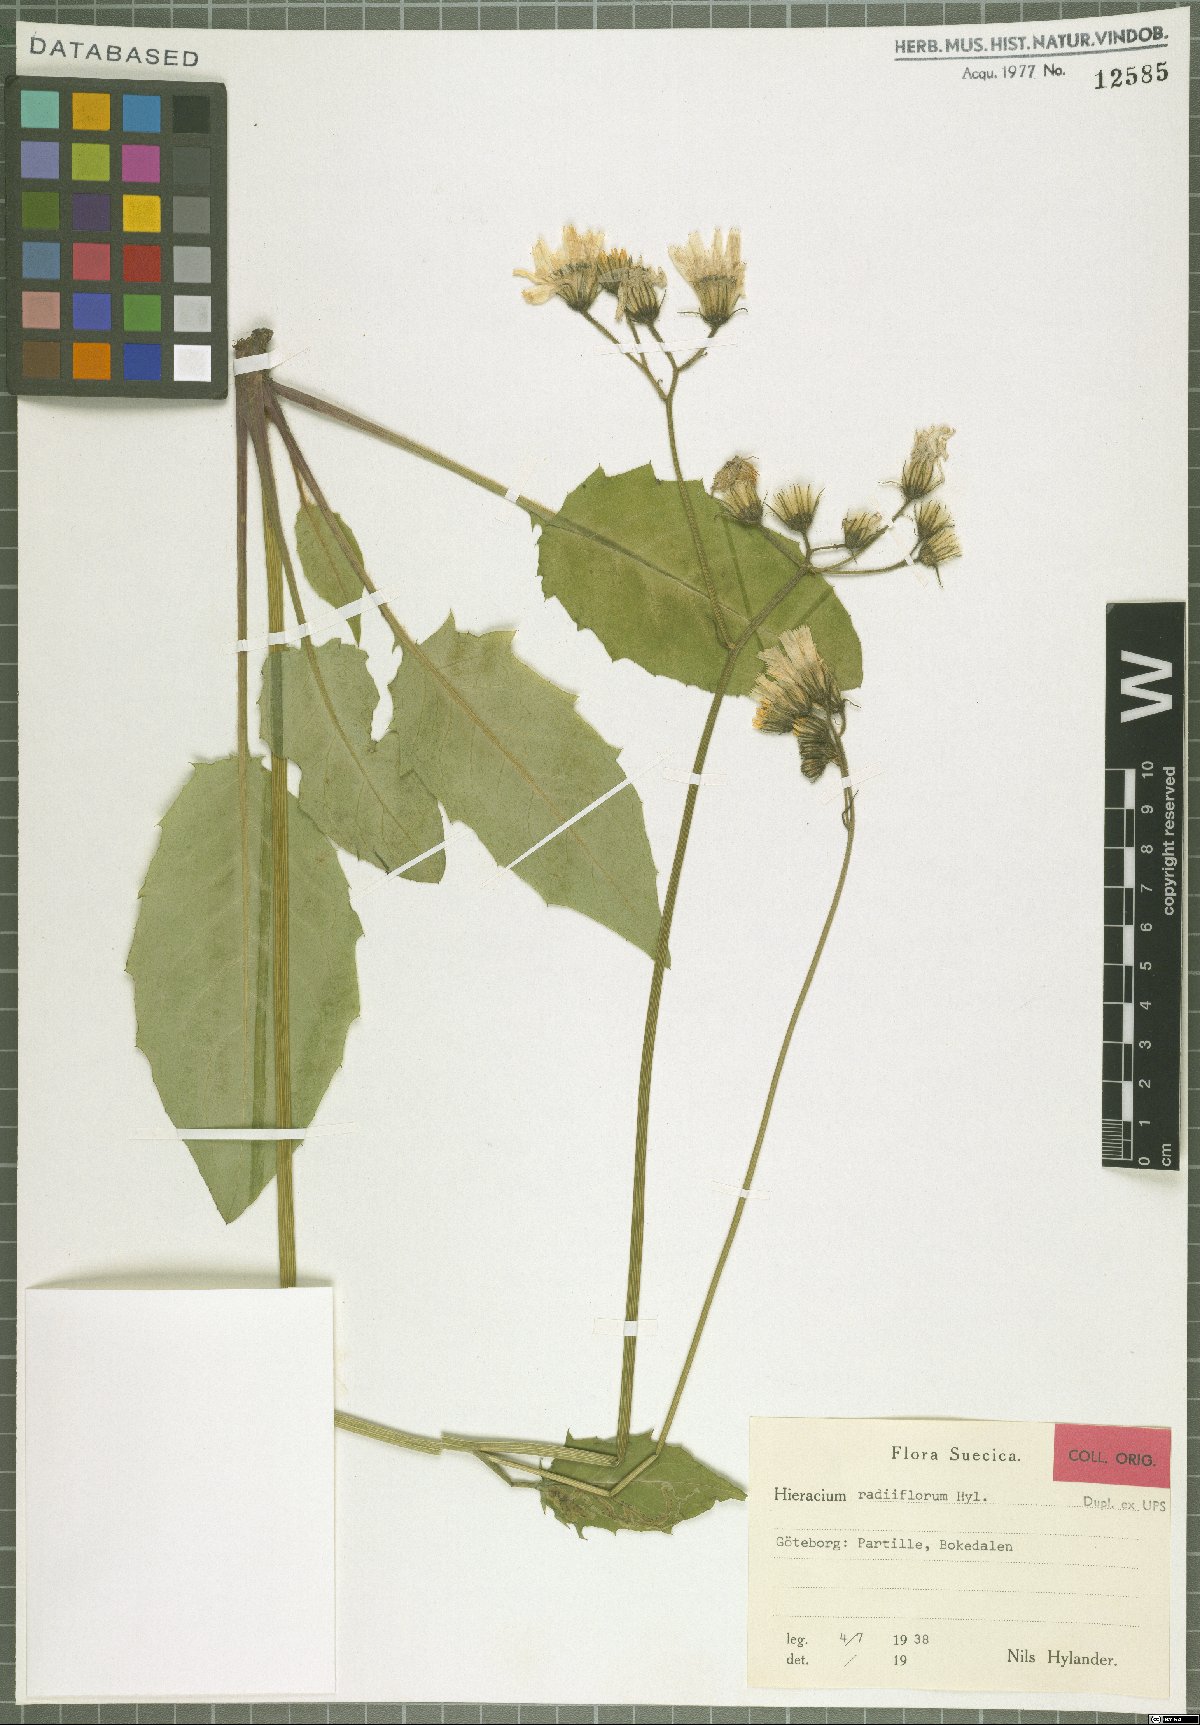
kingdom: Plantae
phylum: Tracheophyta
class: Magnoliopsida
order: Asterales
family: Asteraceae
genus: Hieracium
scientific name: Hieracium radiiflorum
